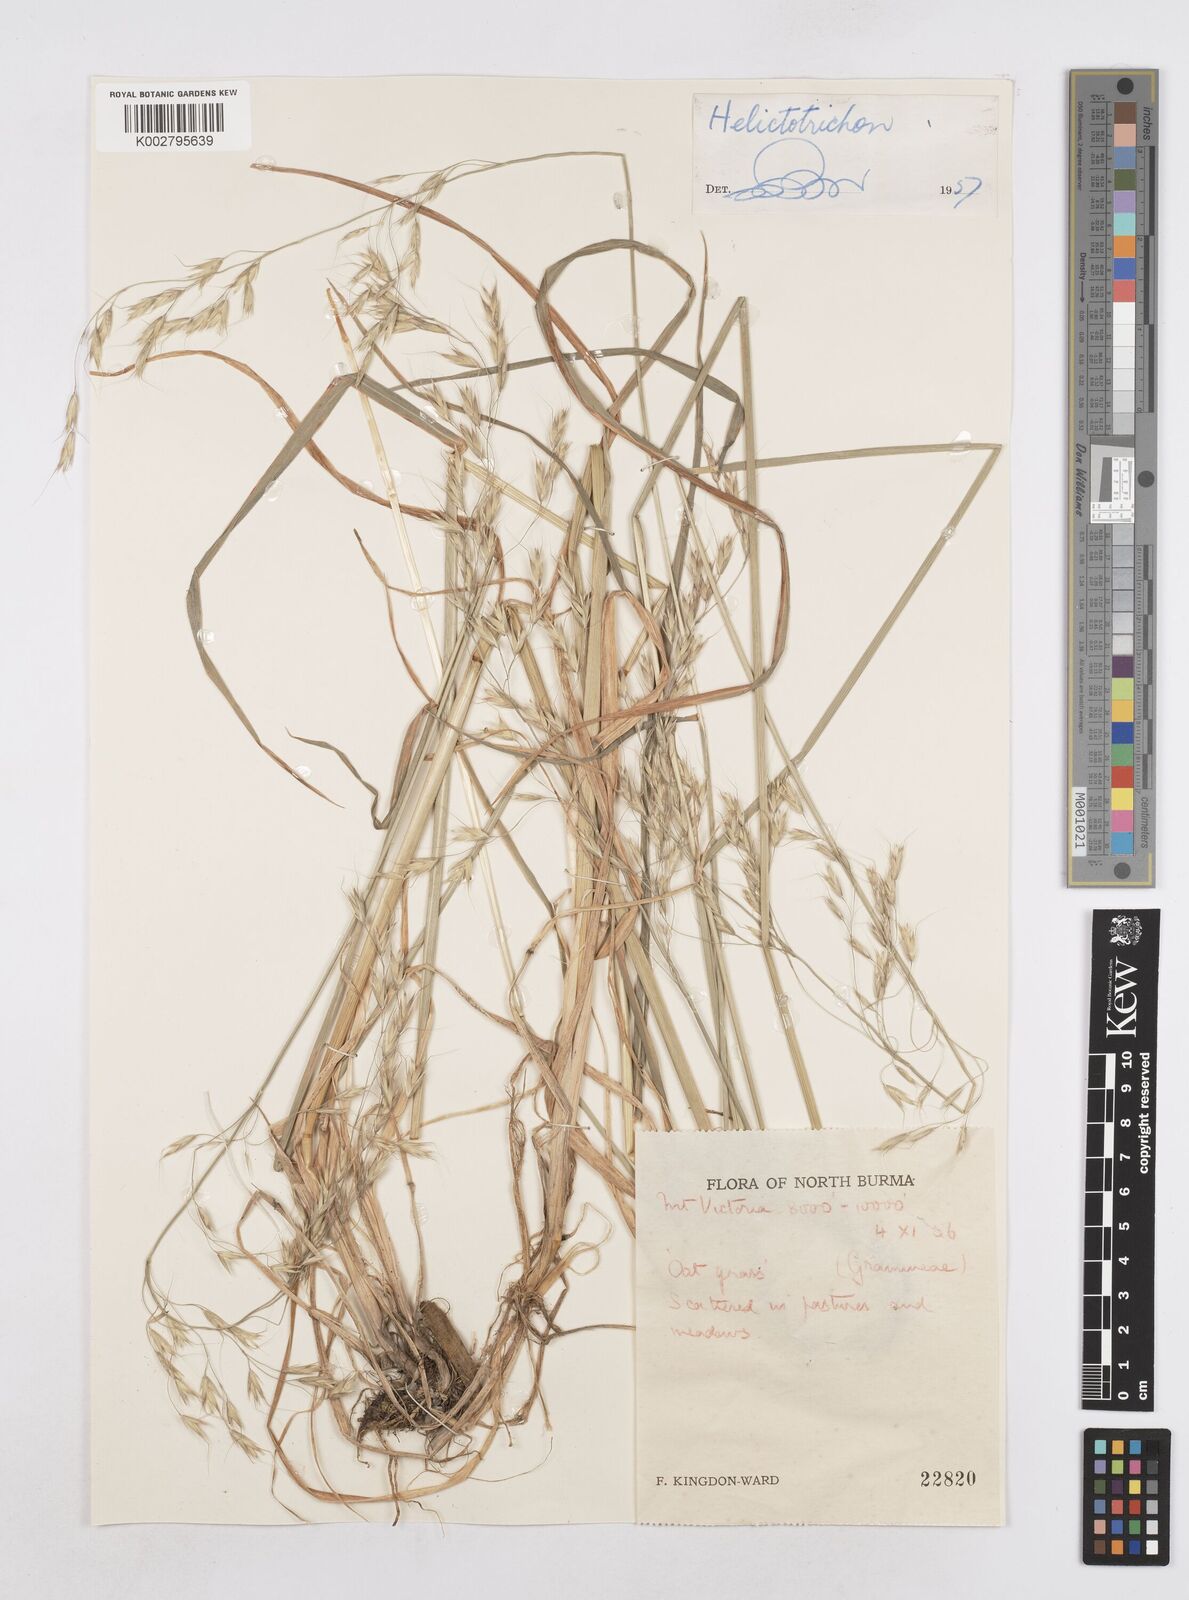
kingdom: Plantae
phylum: Tracheophyta
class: Liliopsida
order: Poales
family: Poaceae
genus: Helictotrichon
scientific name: Helictotrichon
